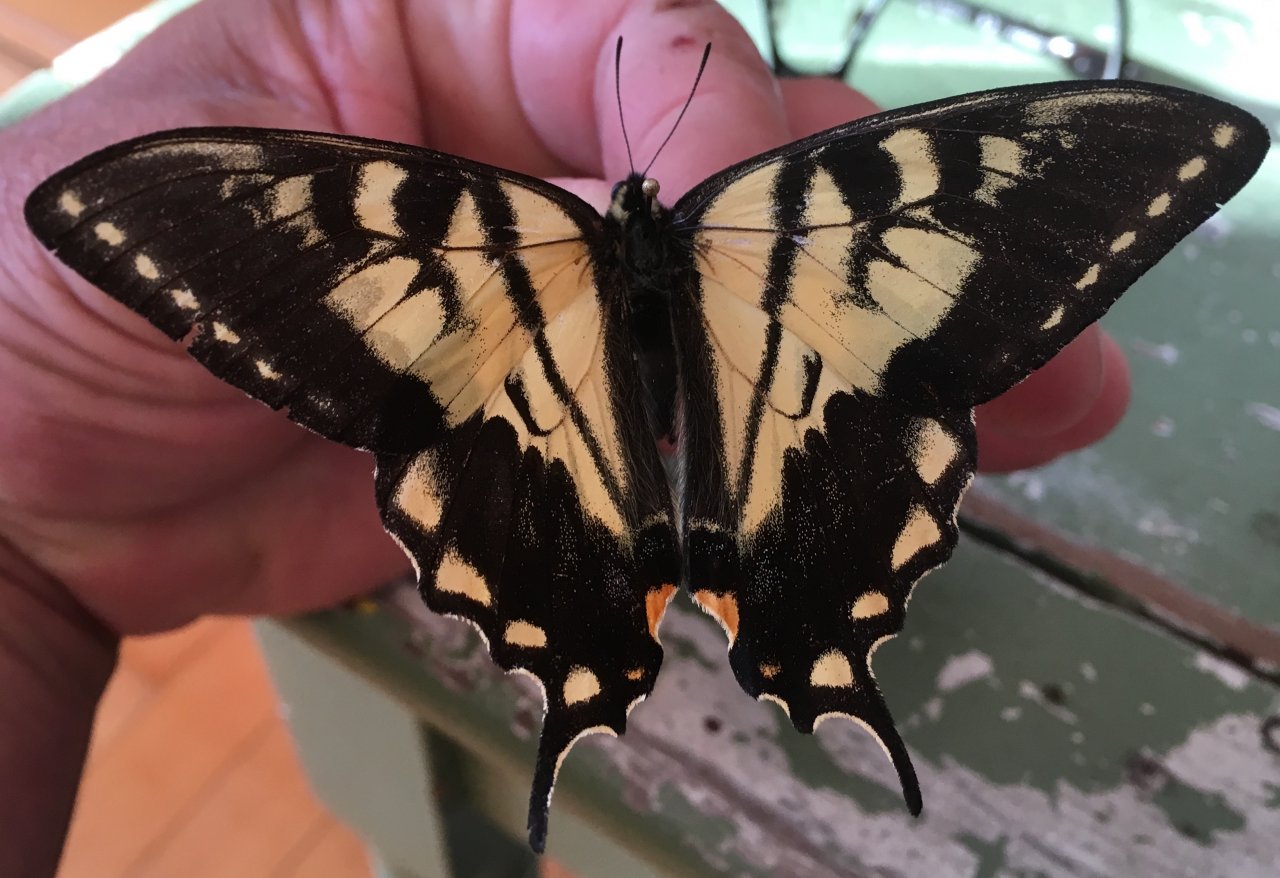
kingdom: Animalia
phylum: Arthropoda
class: Insecta
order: Lepidoptera
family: Papilionidae
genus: Pterourus
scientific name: Pterourus canadensis
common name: Canadian Tiger Swallowtail
